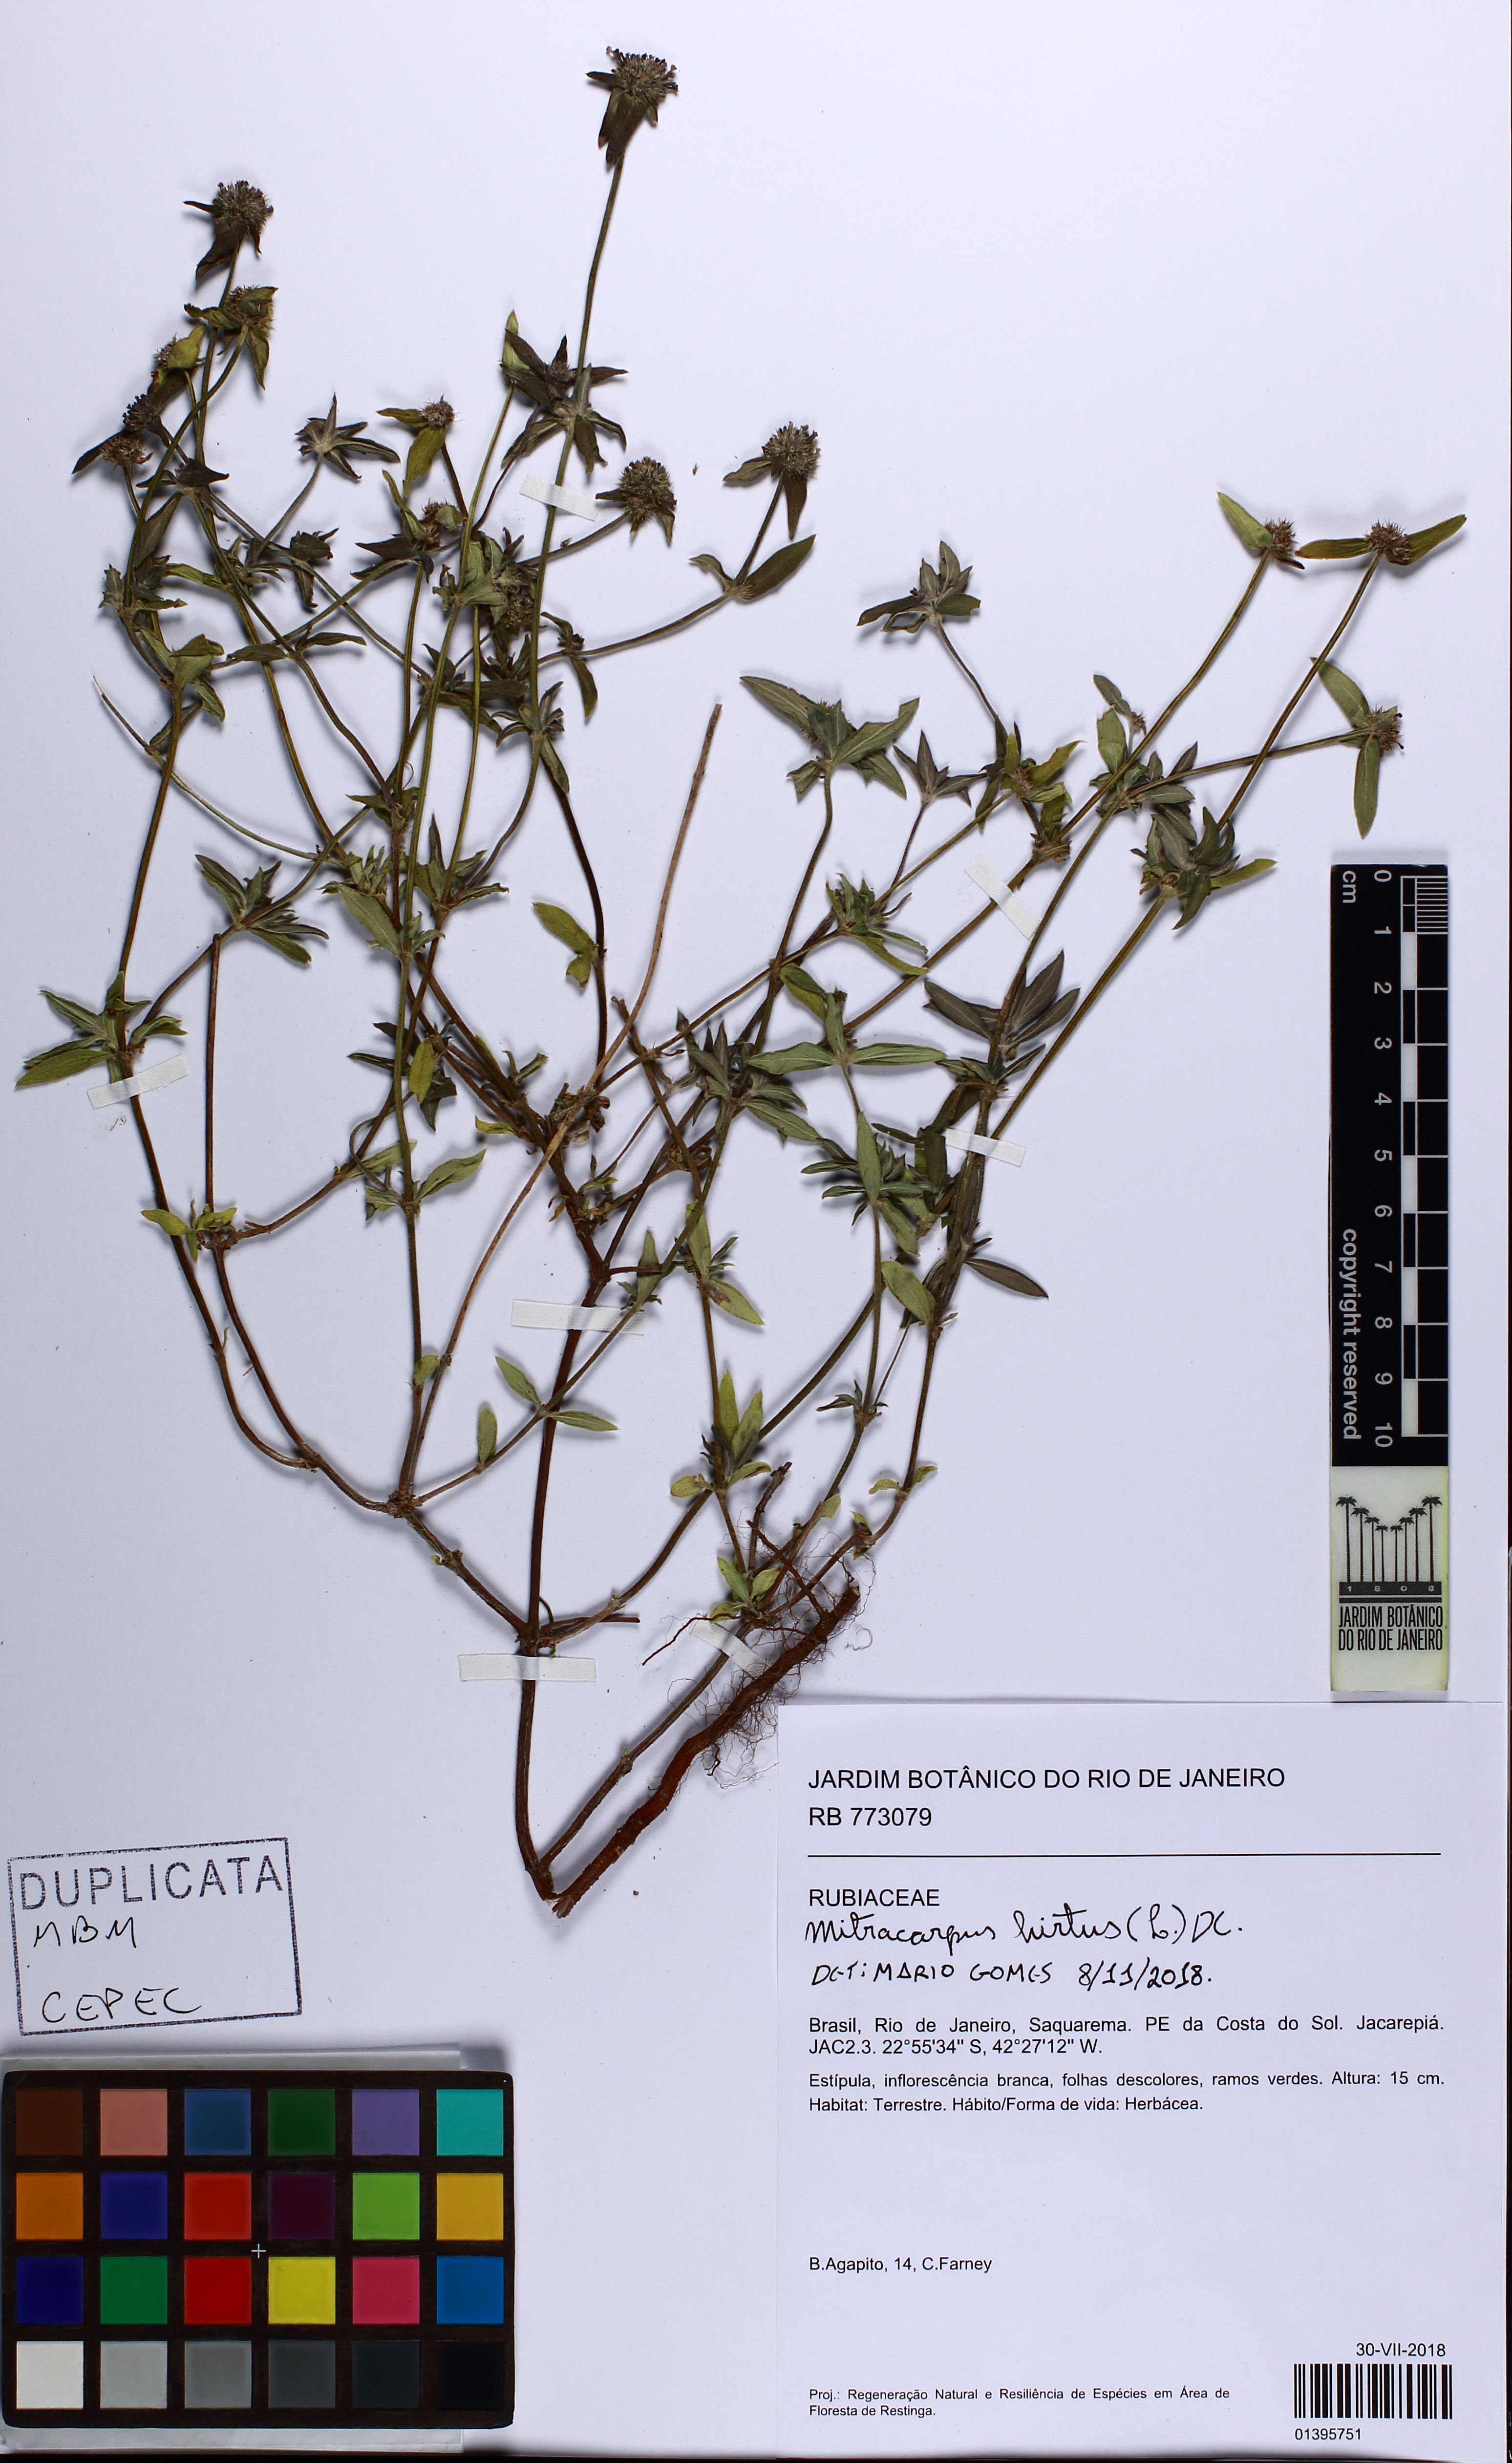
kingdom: Plantae
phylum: Tracheophyta
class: Magnoliopsida
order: Gentianales
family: Rubiaceae
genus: Mitracarpus
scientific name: Mitracarpus hirtus
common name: Tropical girdlepod
